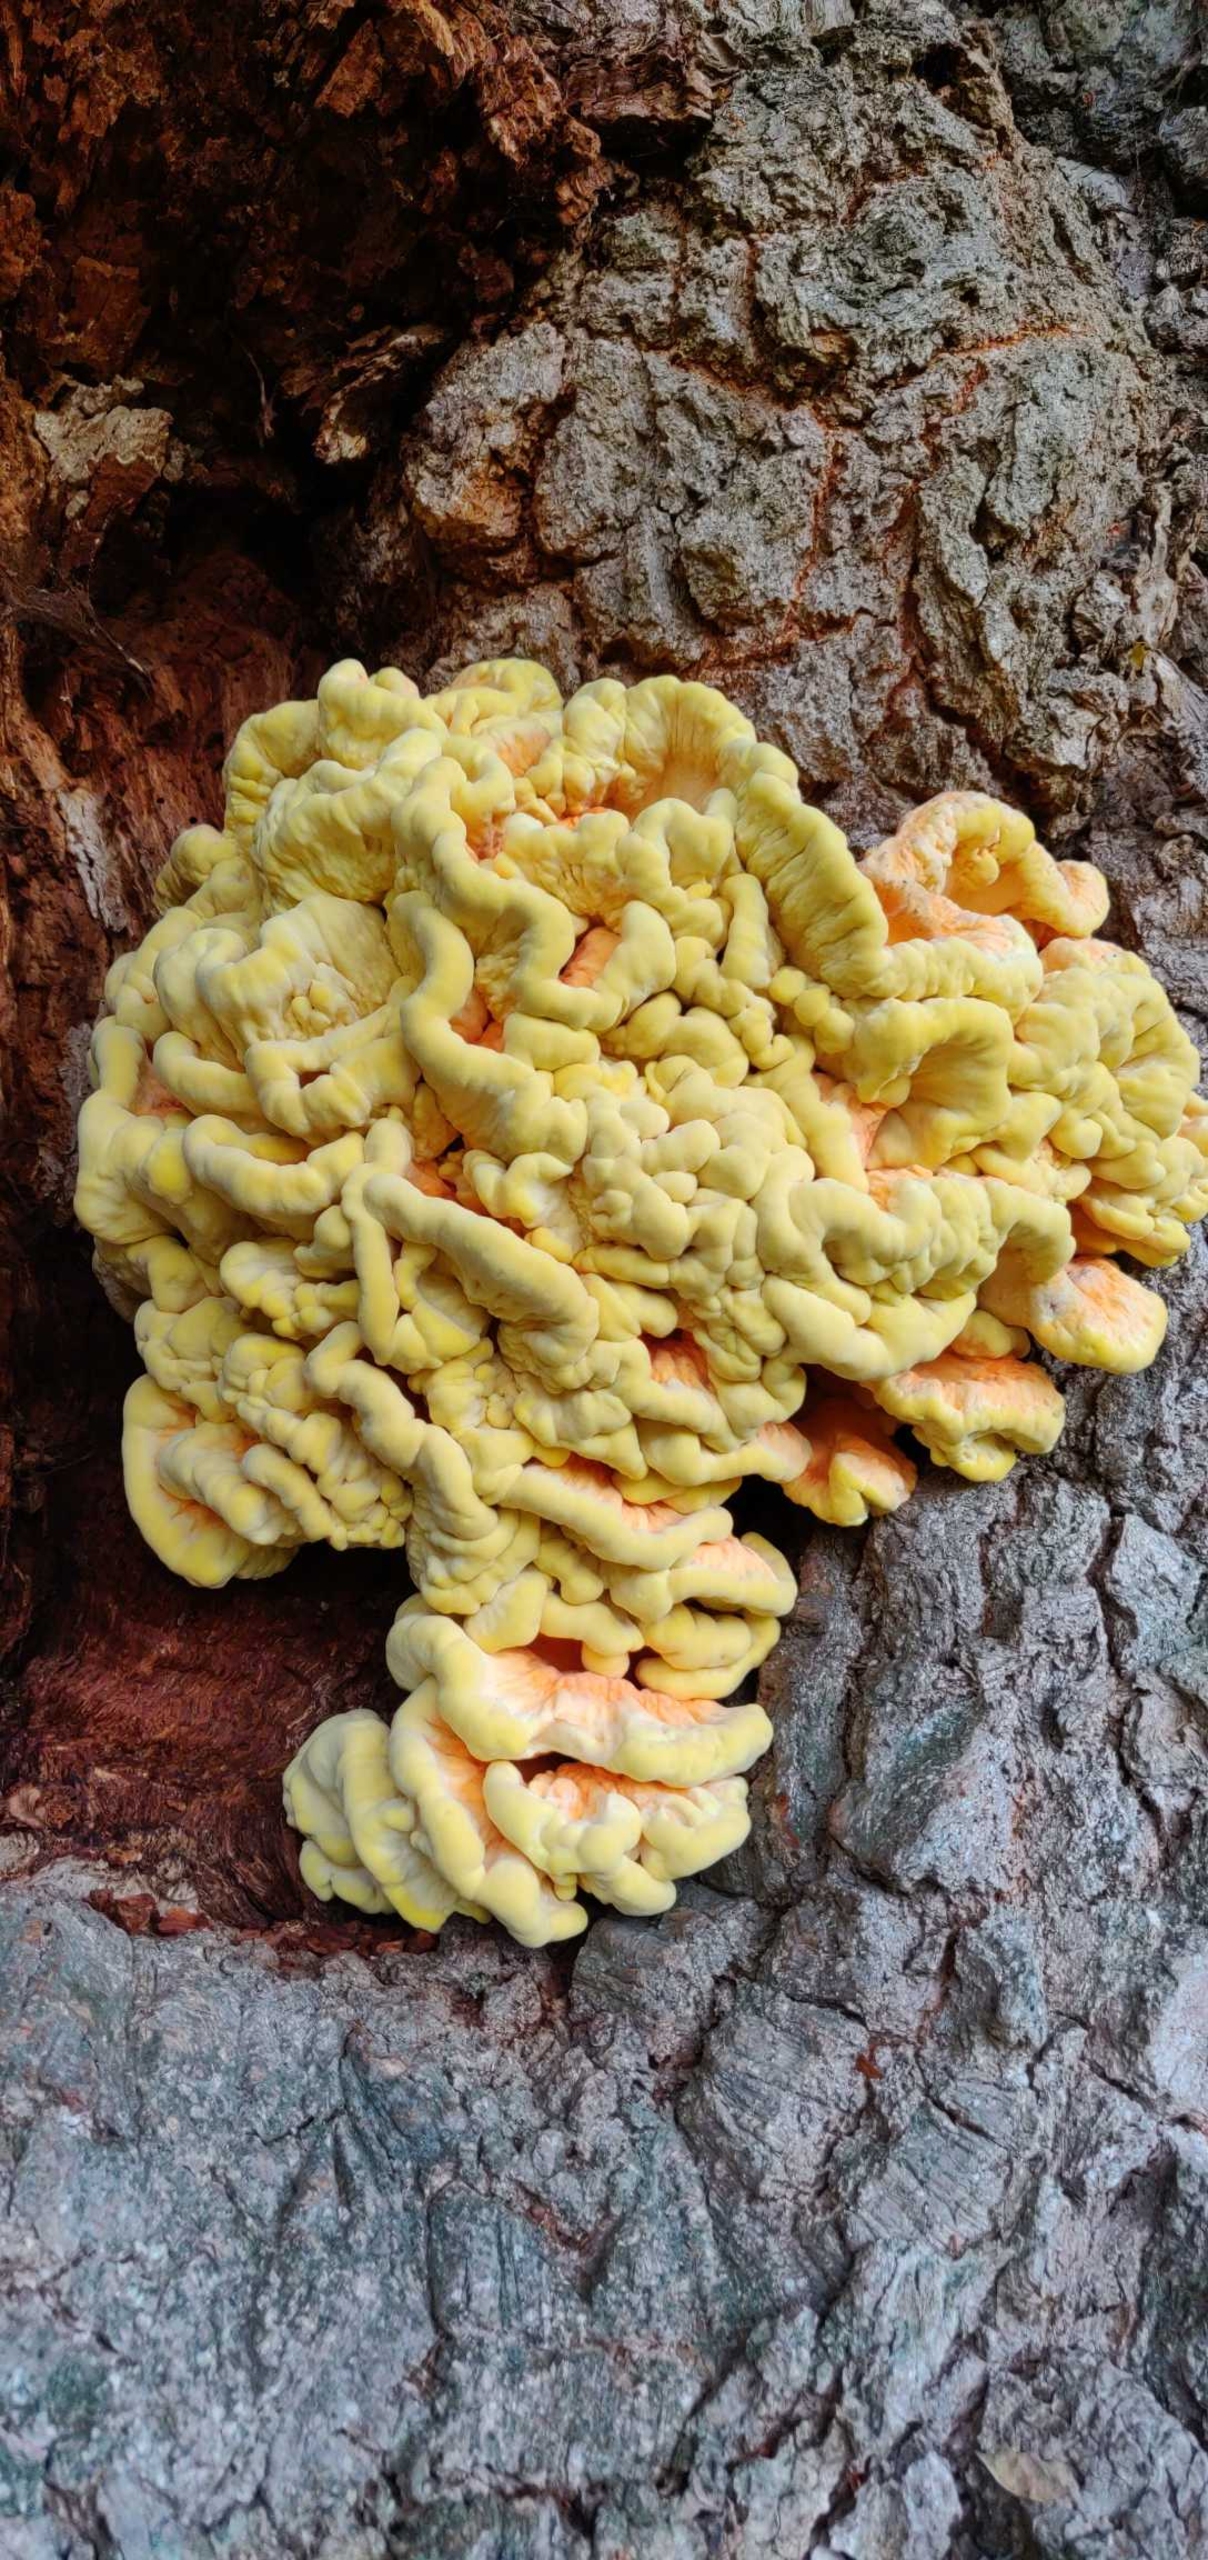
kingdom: Fungi
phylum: Basidiomycota
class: Agaricomycetes
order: Polyporales
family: Laetiporaceae
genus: Laetiporus
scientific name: Laetiporus sulphureus
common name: Svovlporesvamp
